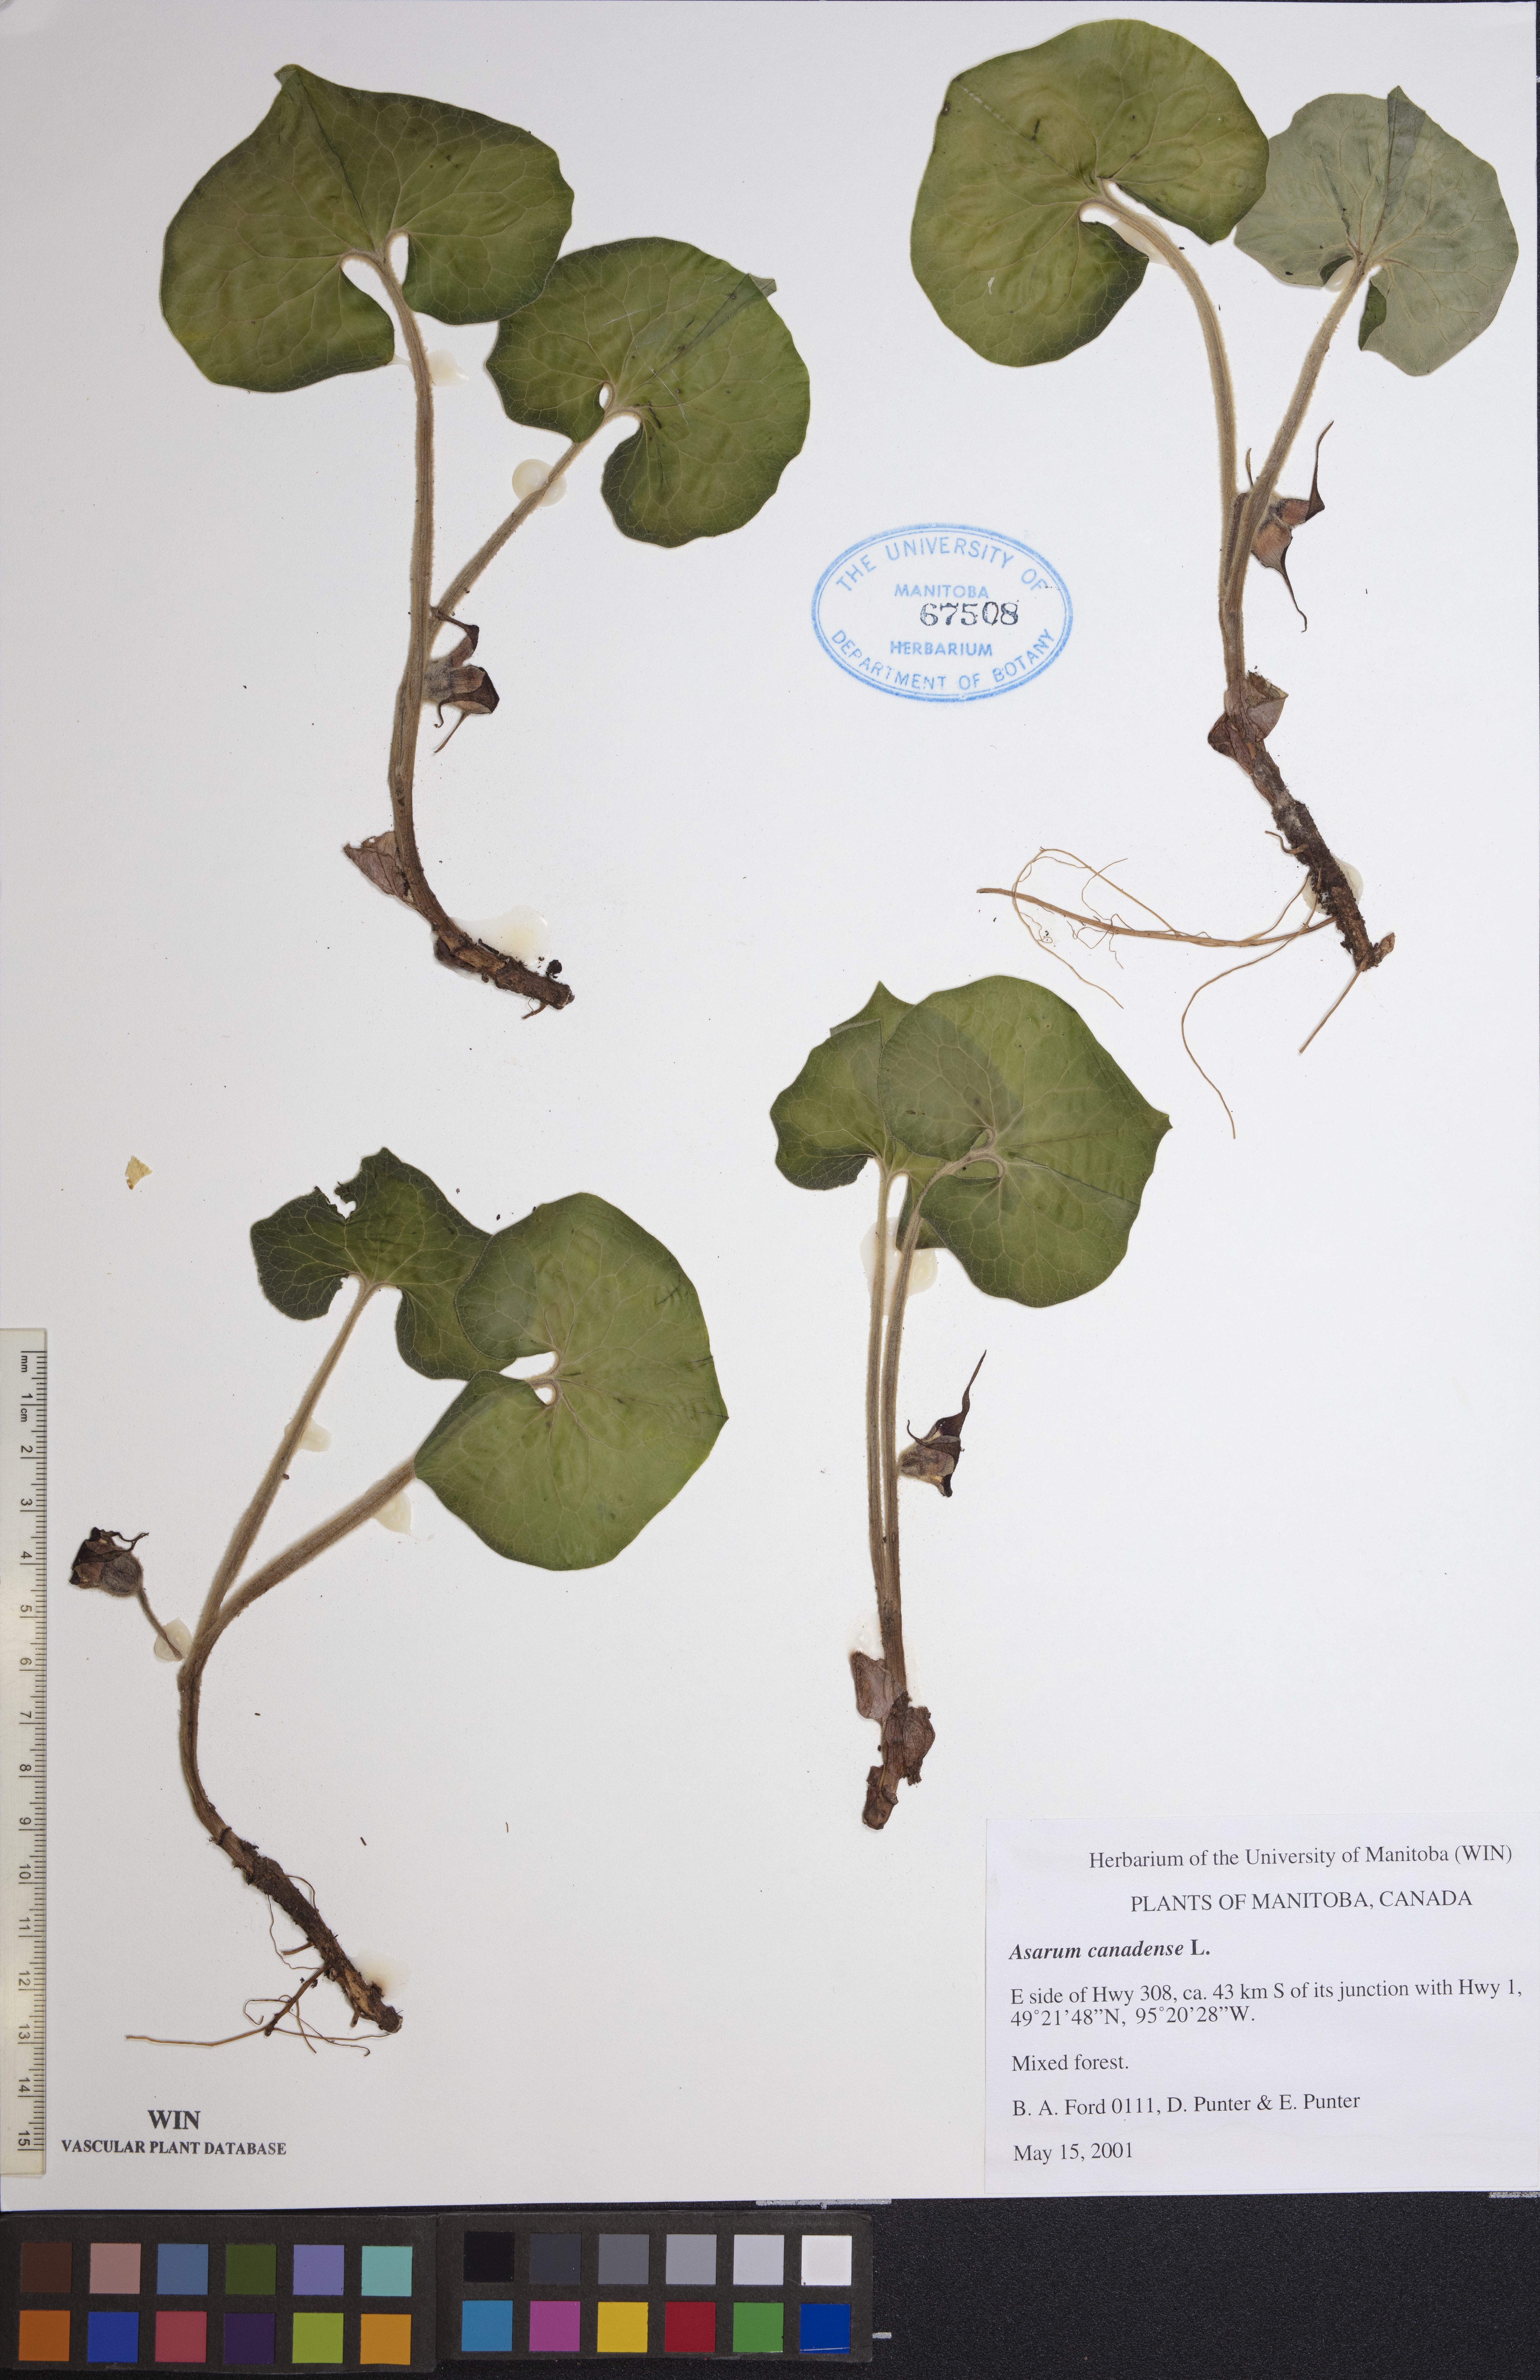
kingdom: Plantae
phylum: Tracheophyta
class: Magnoliopsida
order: Piperales
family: Aristolochiaceae
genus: Asarum
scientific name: Asarum canadense
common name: Wild ginger
